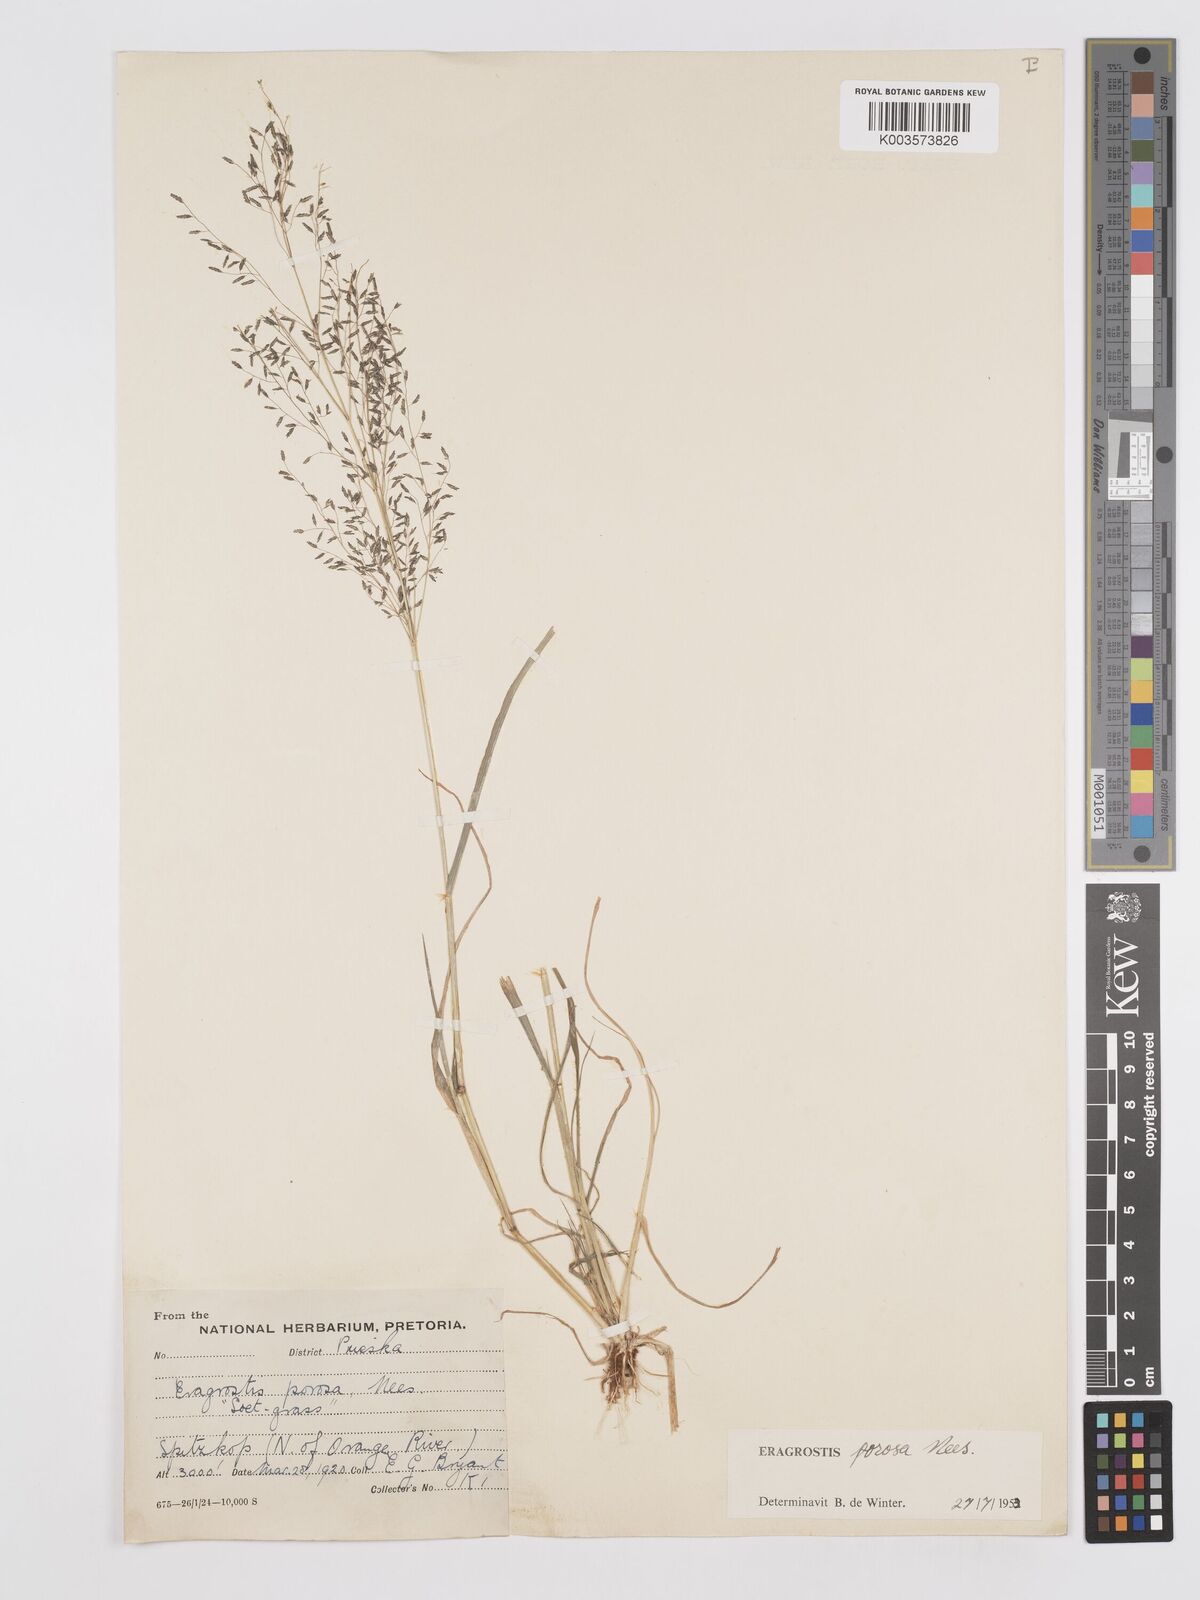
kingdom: Plantae
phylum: Tracheophyta
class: Liliopsida
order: Poales
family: Poaceae
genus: Eragrostis
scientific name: Eragrostis porosa
